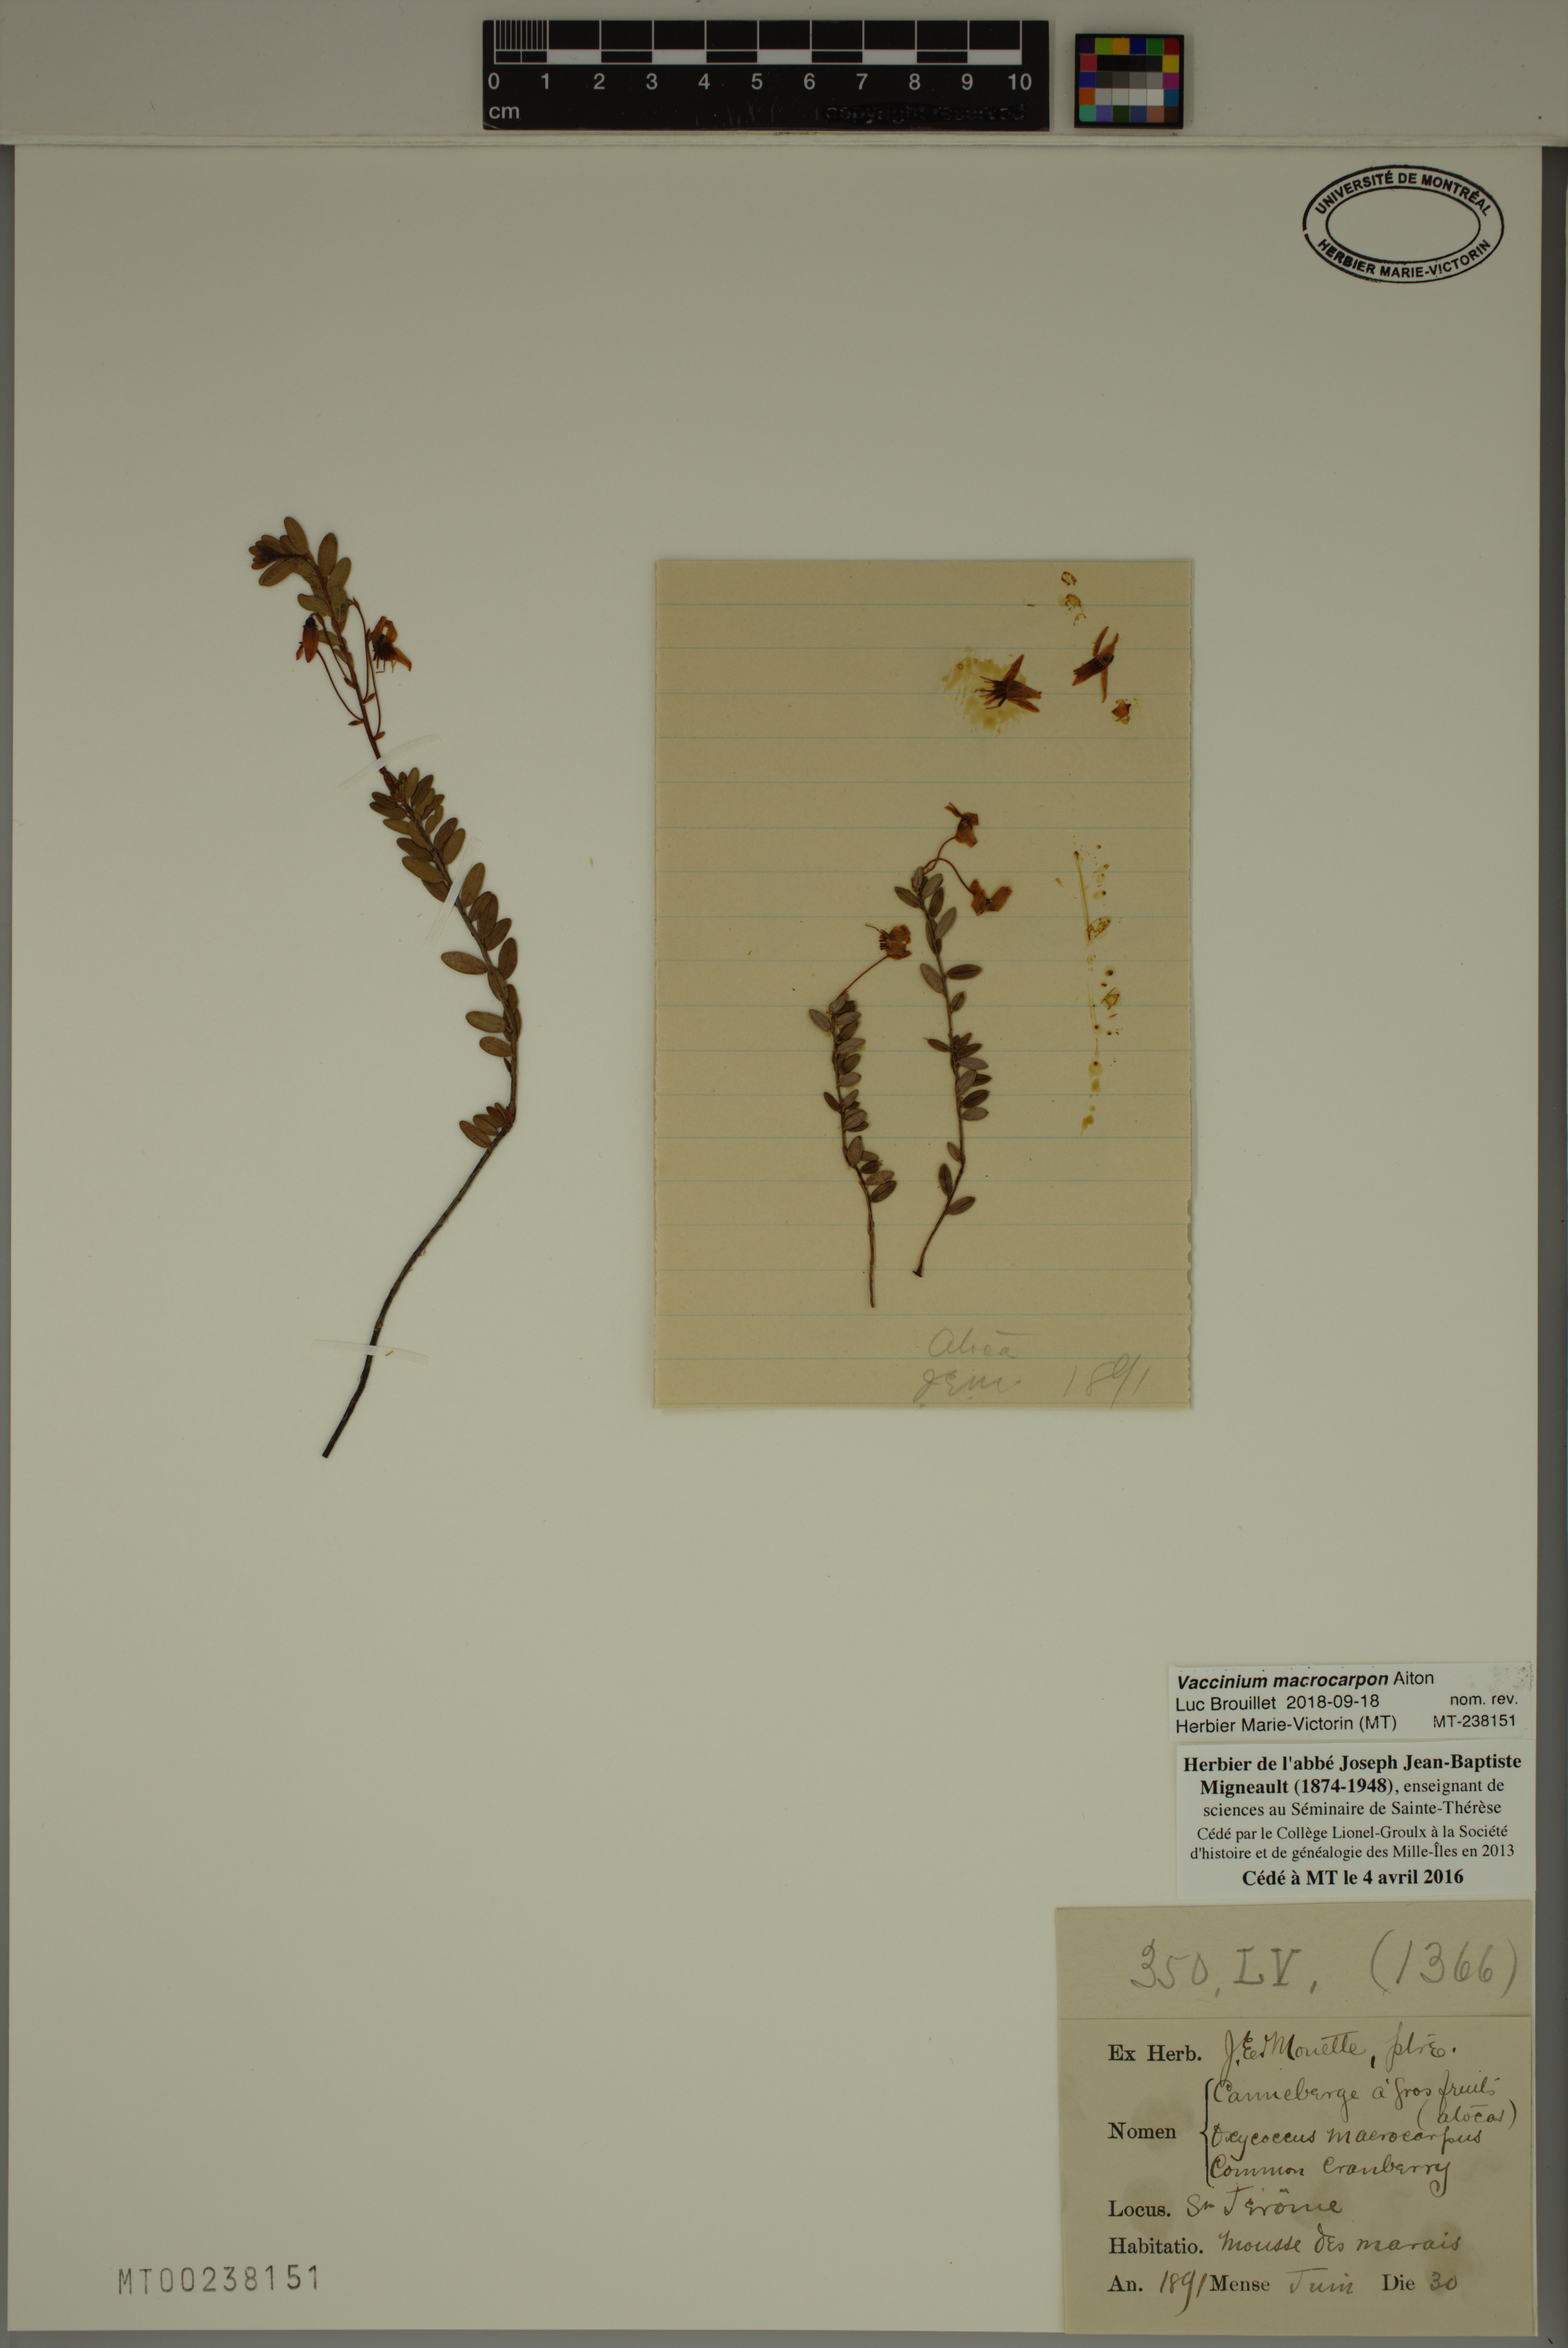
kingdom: Plantae
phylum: Tracheophyta
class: Magnoliopsida
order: Ericales
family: Ericaceae
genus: Vaccinium
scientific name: Vaccinium macrocarpon
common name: American cranberry
